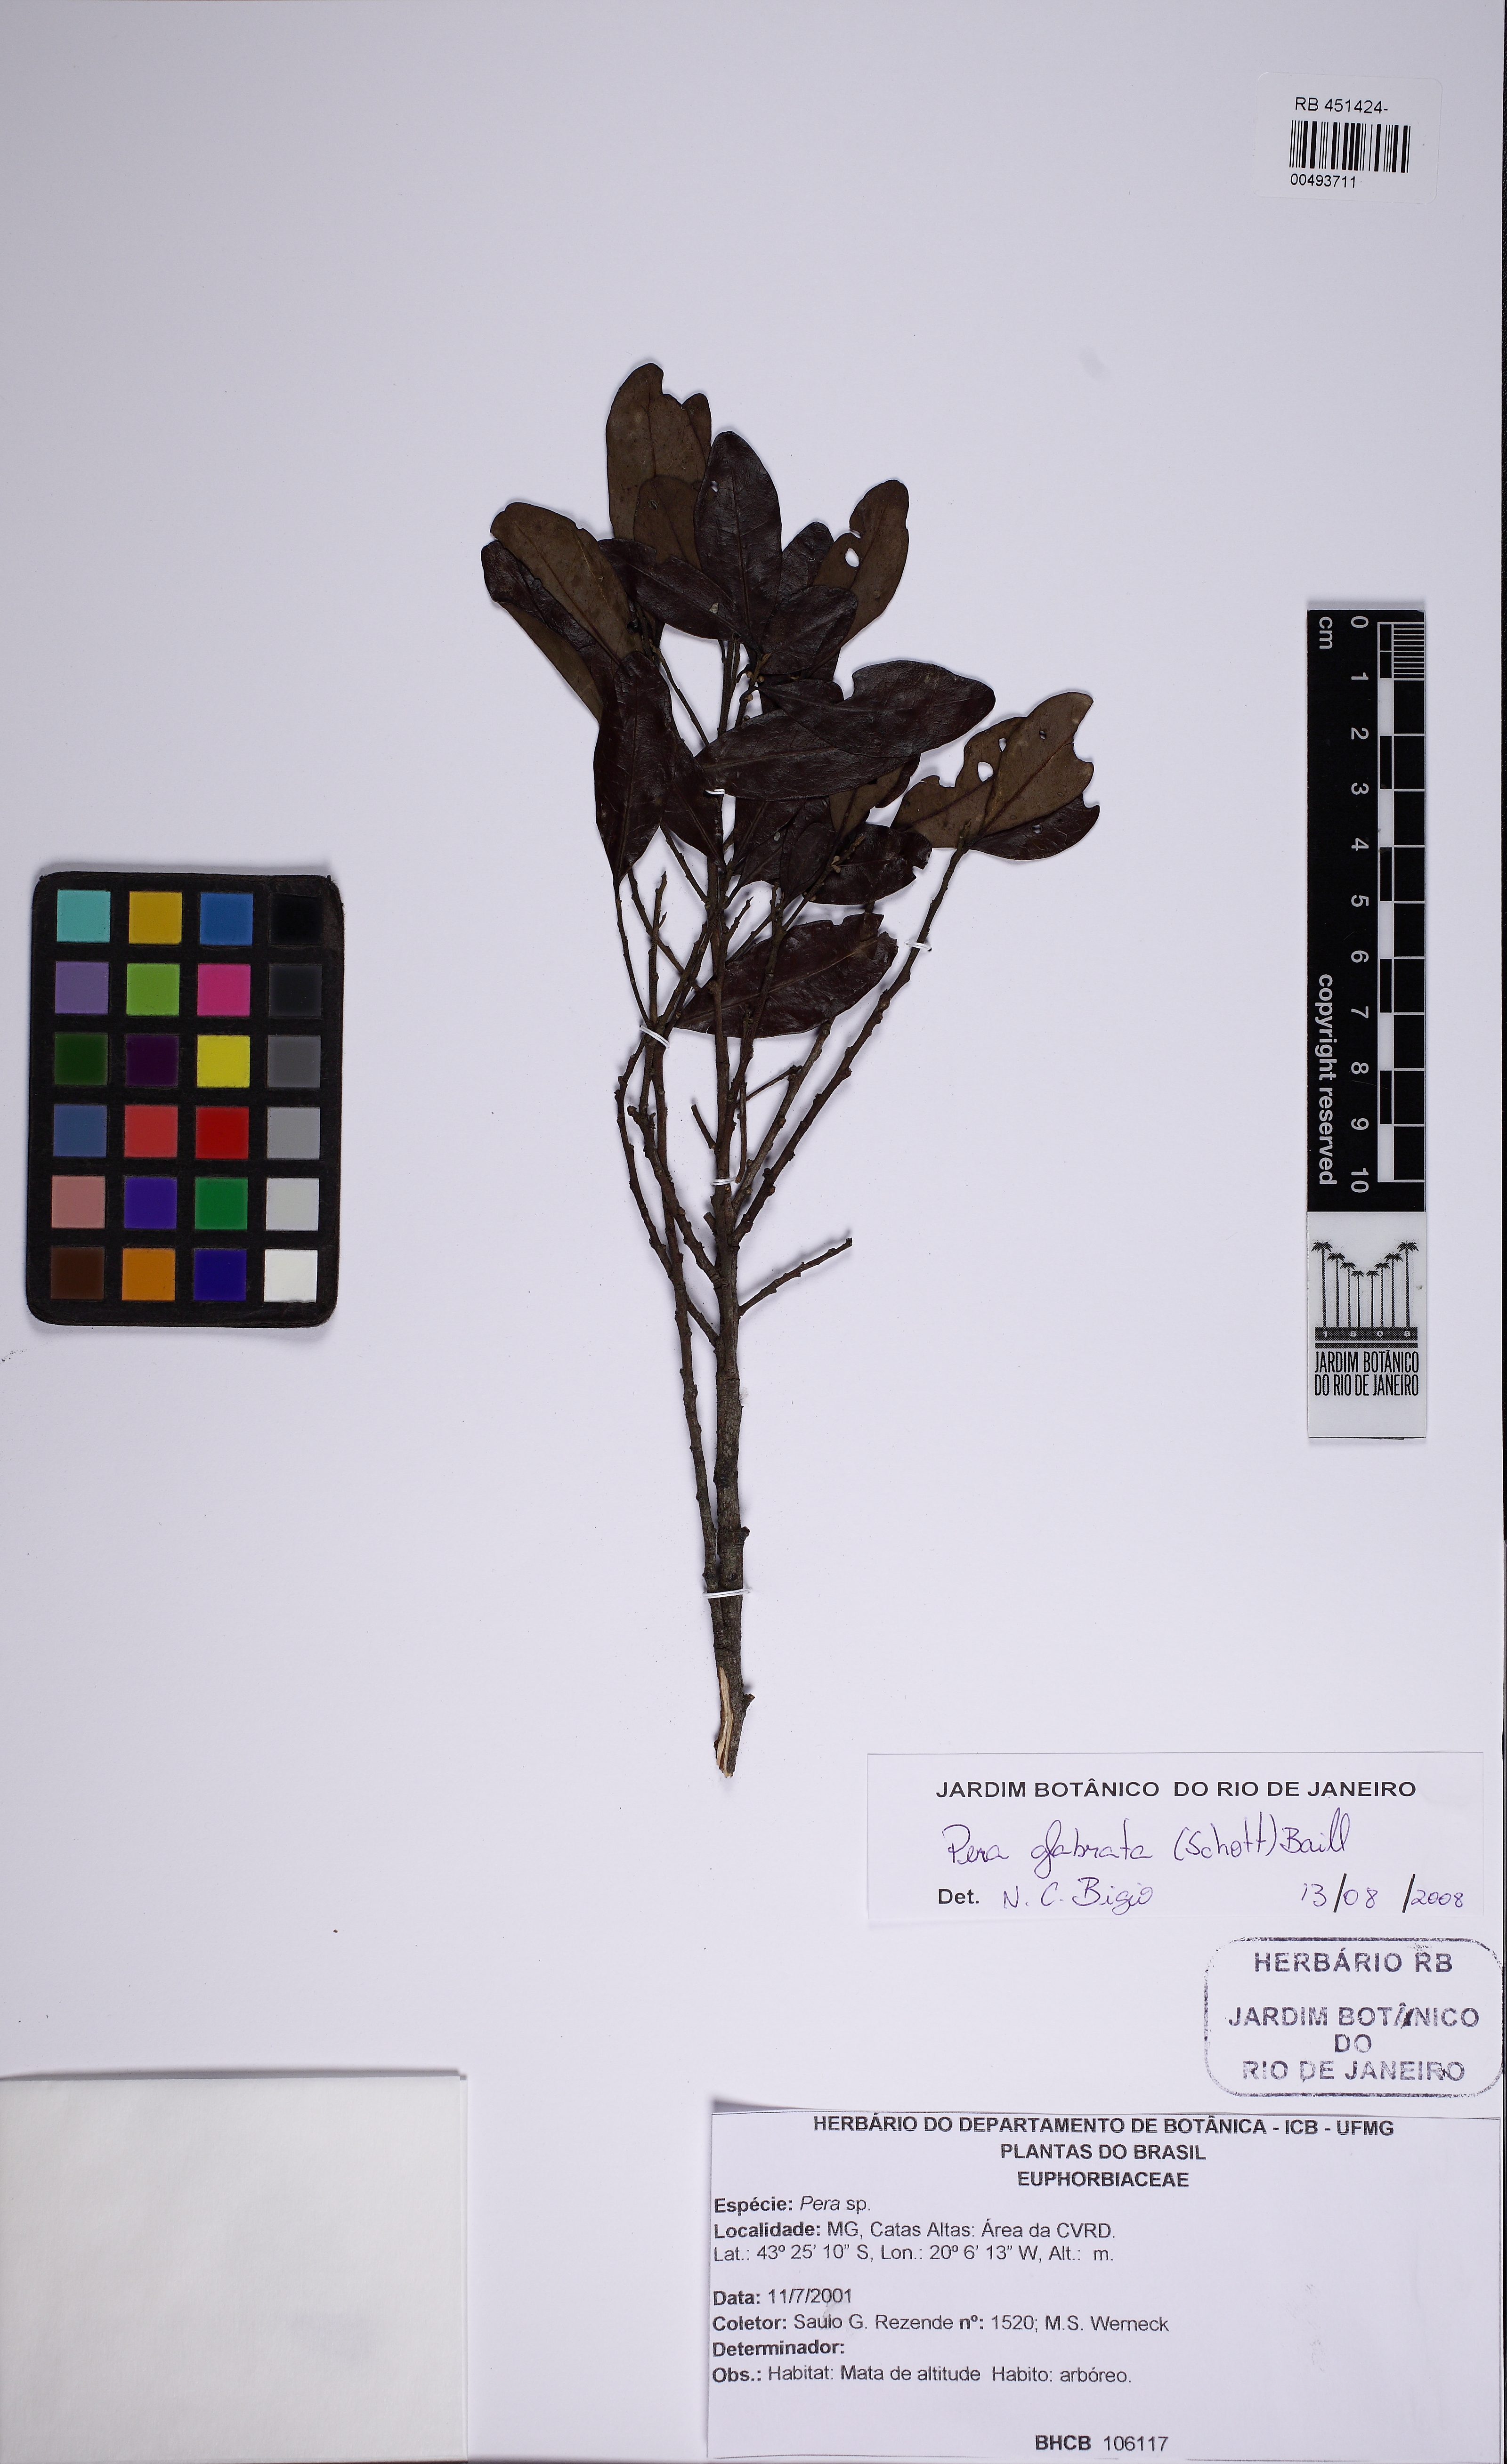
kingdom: Plantae
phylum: Tracheophyta
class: Magnoliopsida
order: Malpighiales
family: Peraceae
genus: Pera
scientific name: Pera glabrata
